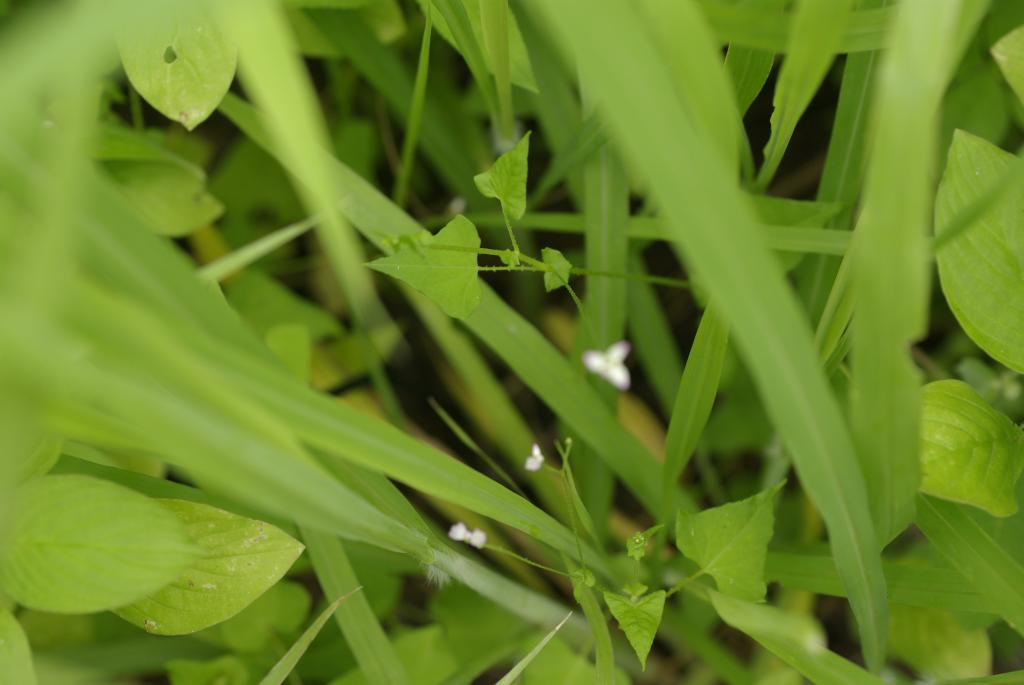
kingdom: Plantae
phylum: Tracheophyta
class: Magnoliopsida
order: Caryophyllales
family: Polygonaceae
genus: Persicaria
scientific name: Persicaria senticosa
